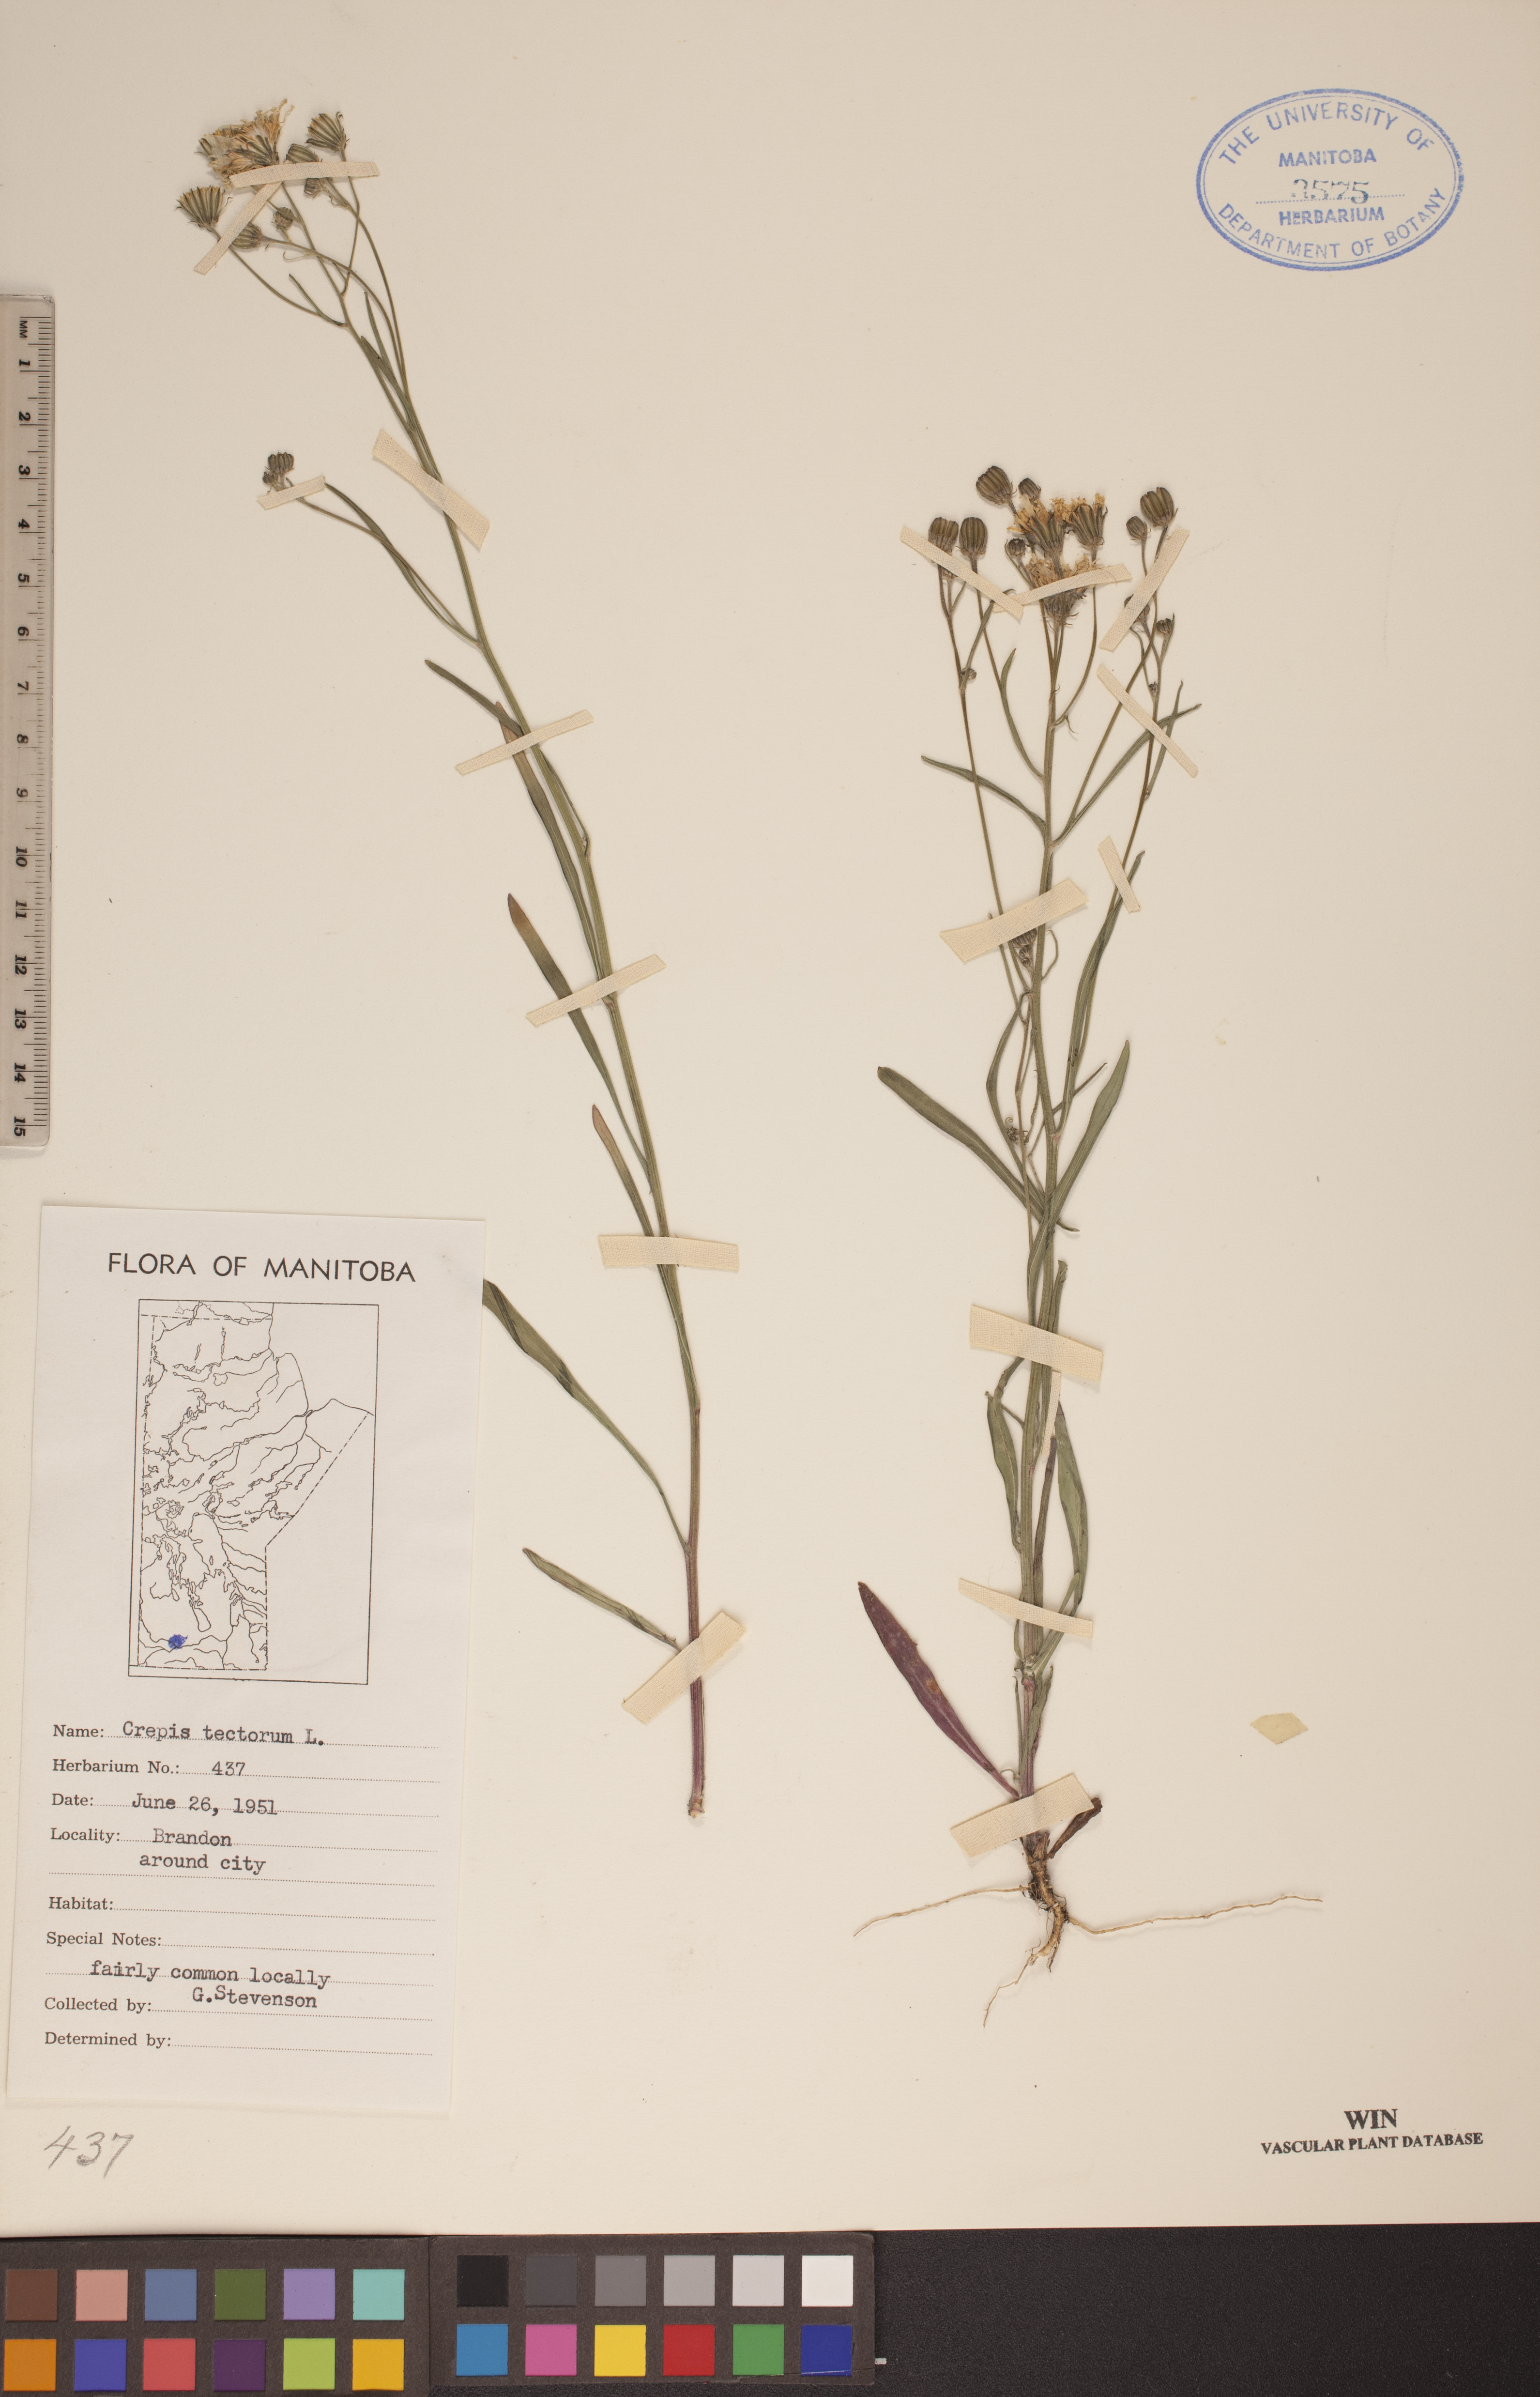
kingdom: Plantae
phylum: Tracheophyta
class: Magnoliopsida
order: Asterales
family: Asteraceae
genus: Crepis
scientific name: Crepis tectorum
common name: Narrow-leaved hawk's-beard
